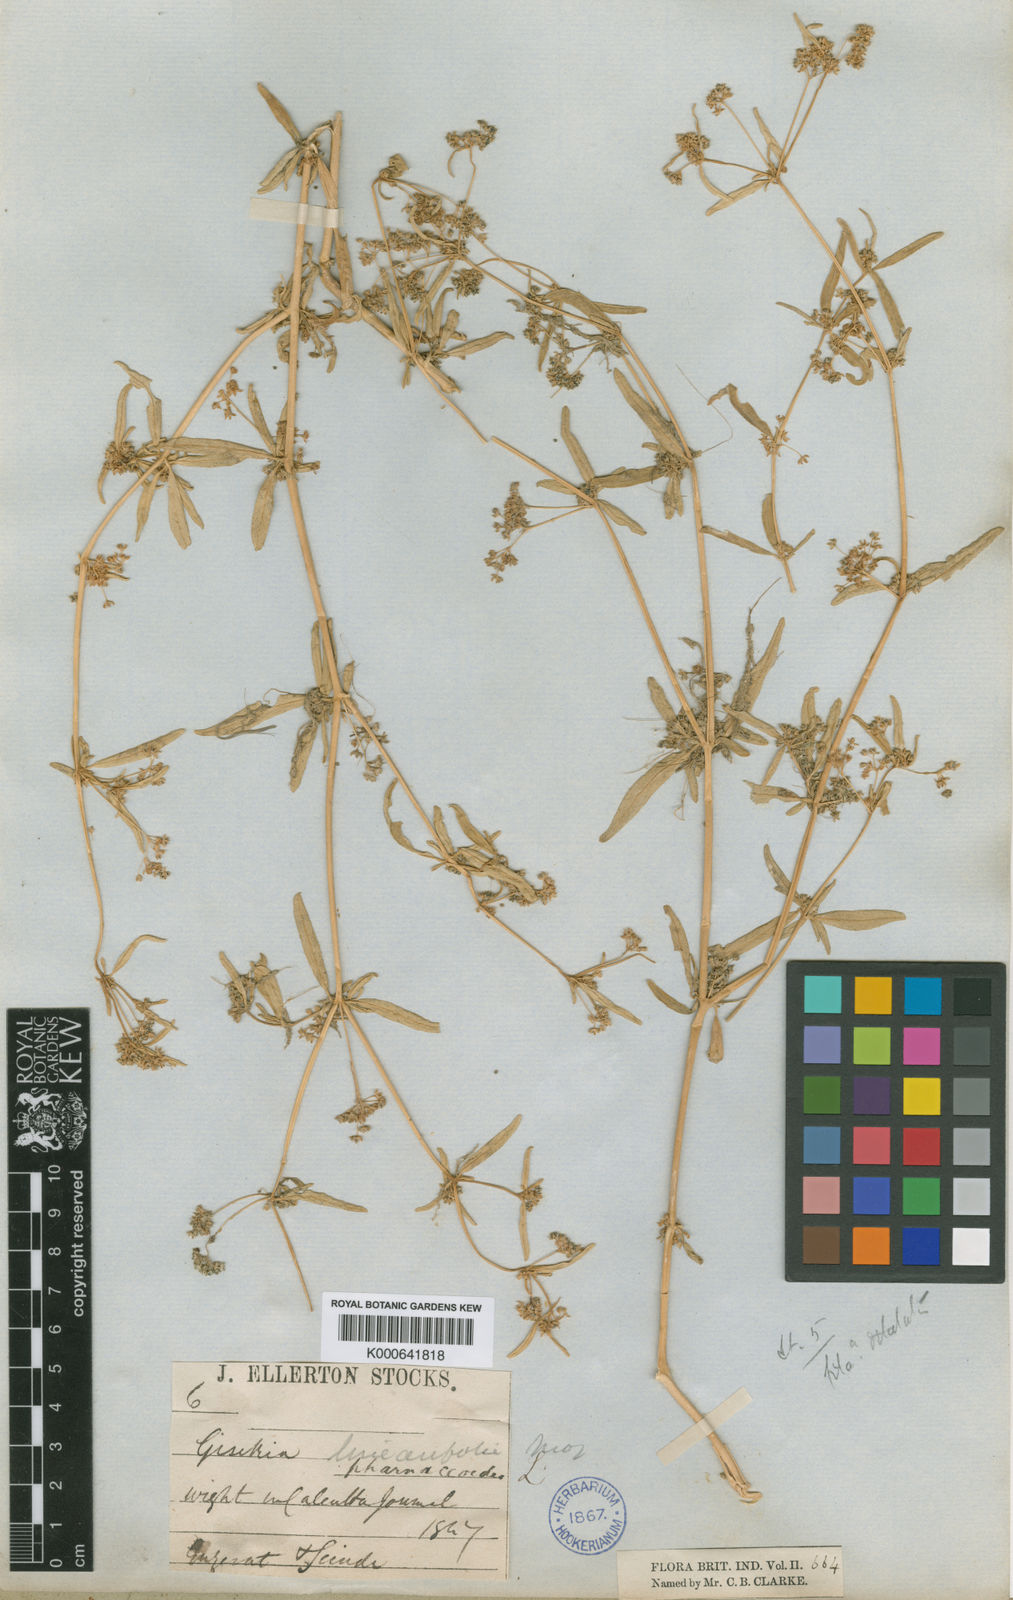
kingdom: Plantae
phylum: Tracheophyta
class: Magnoliopsida
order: Caryophyllales
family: Gisekiaceae
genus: Gisekia
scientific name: Gisekia
